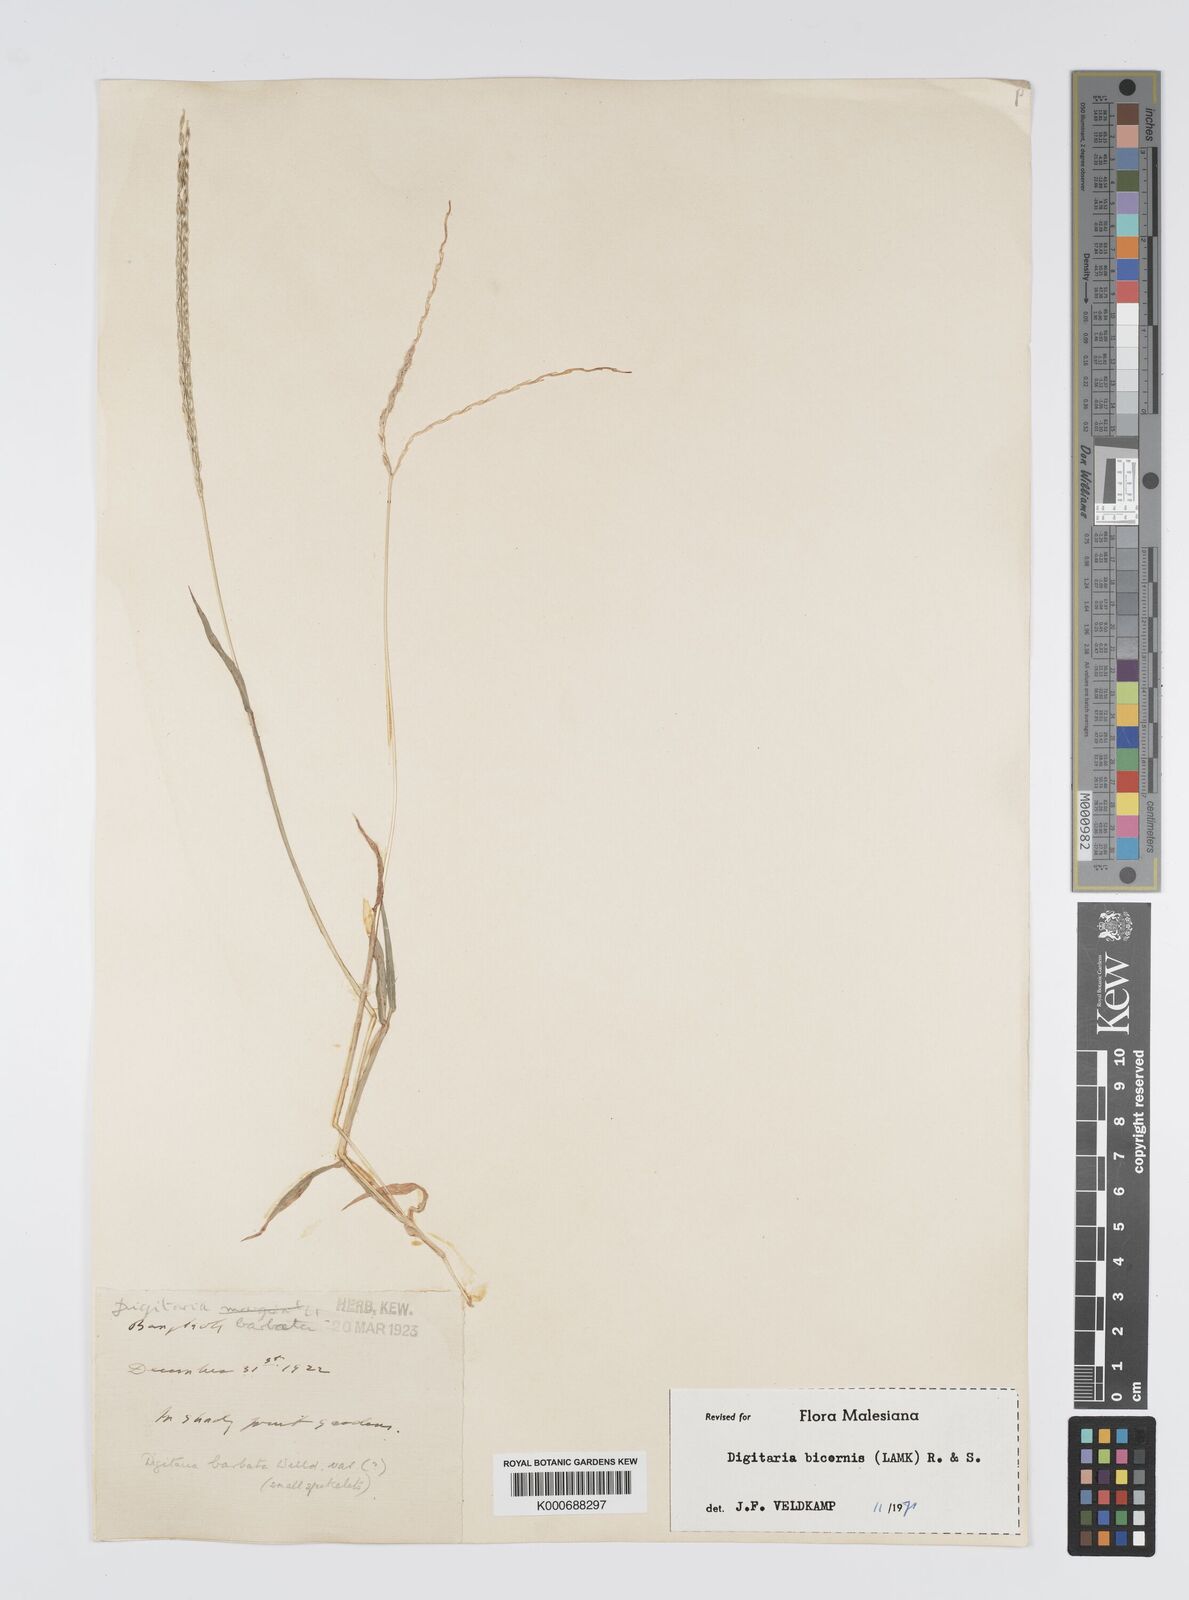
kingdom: Plantae
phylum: Tracheophyta
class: Liliopsida
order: Poales
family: Poaceae
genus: Digitaria
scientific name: Digitaria bicornis
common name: Asian crabgrass
